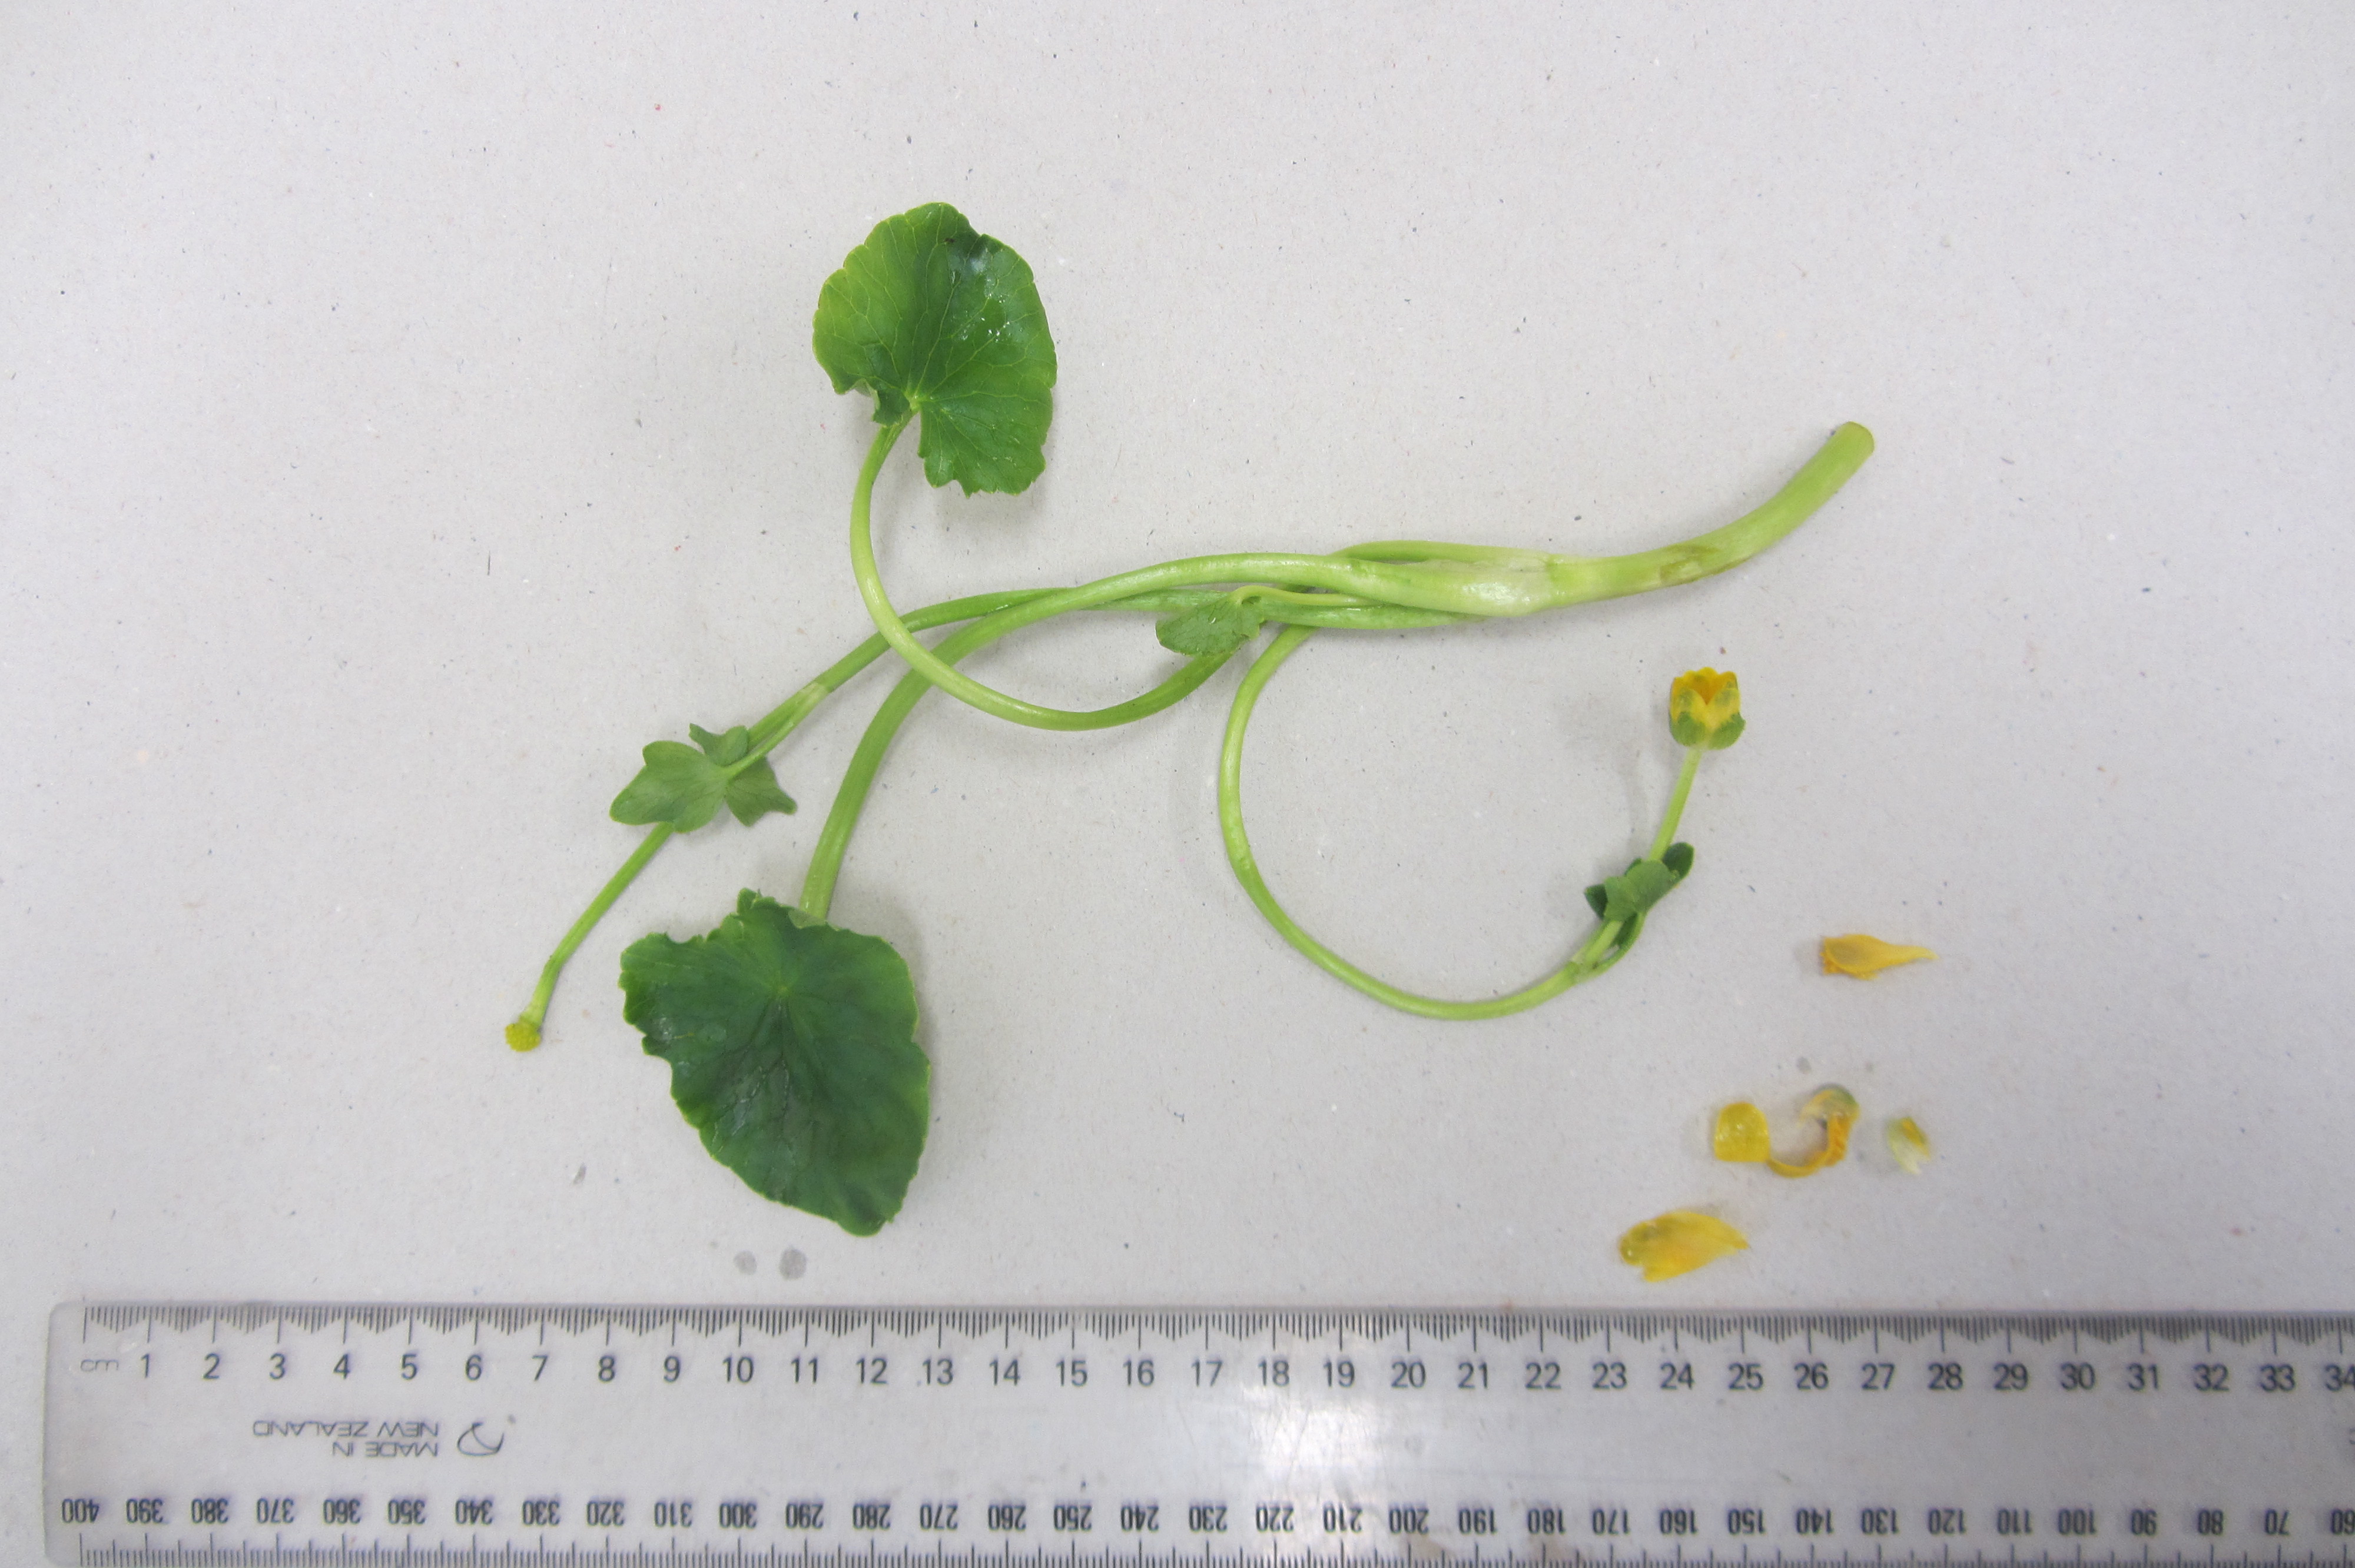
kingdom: Plantae
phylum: Tracheophyta
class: Magnoliopsida
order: Ranunculales
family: Ranunculaceae
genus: Ficaria
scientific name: Ficaria grandiflora
